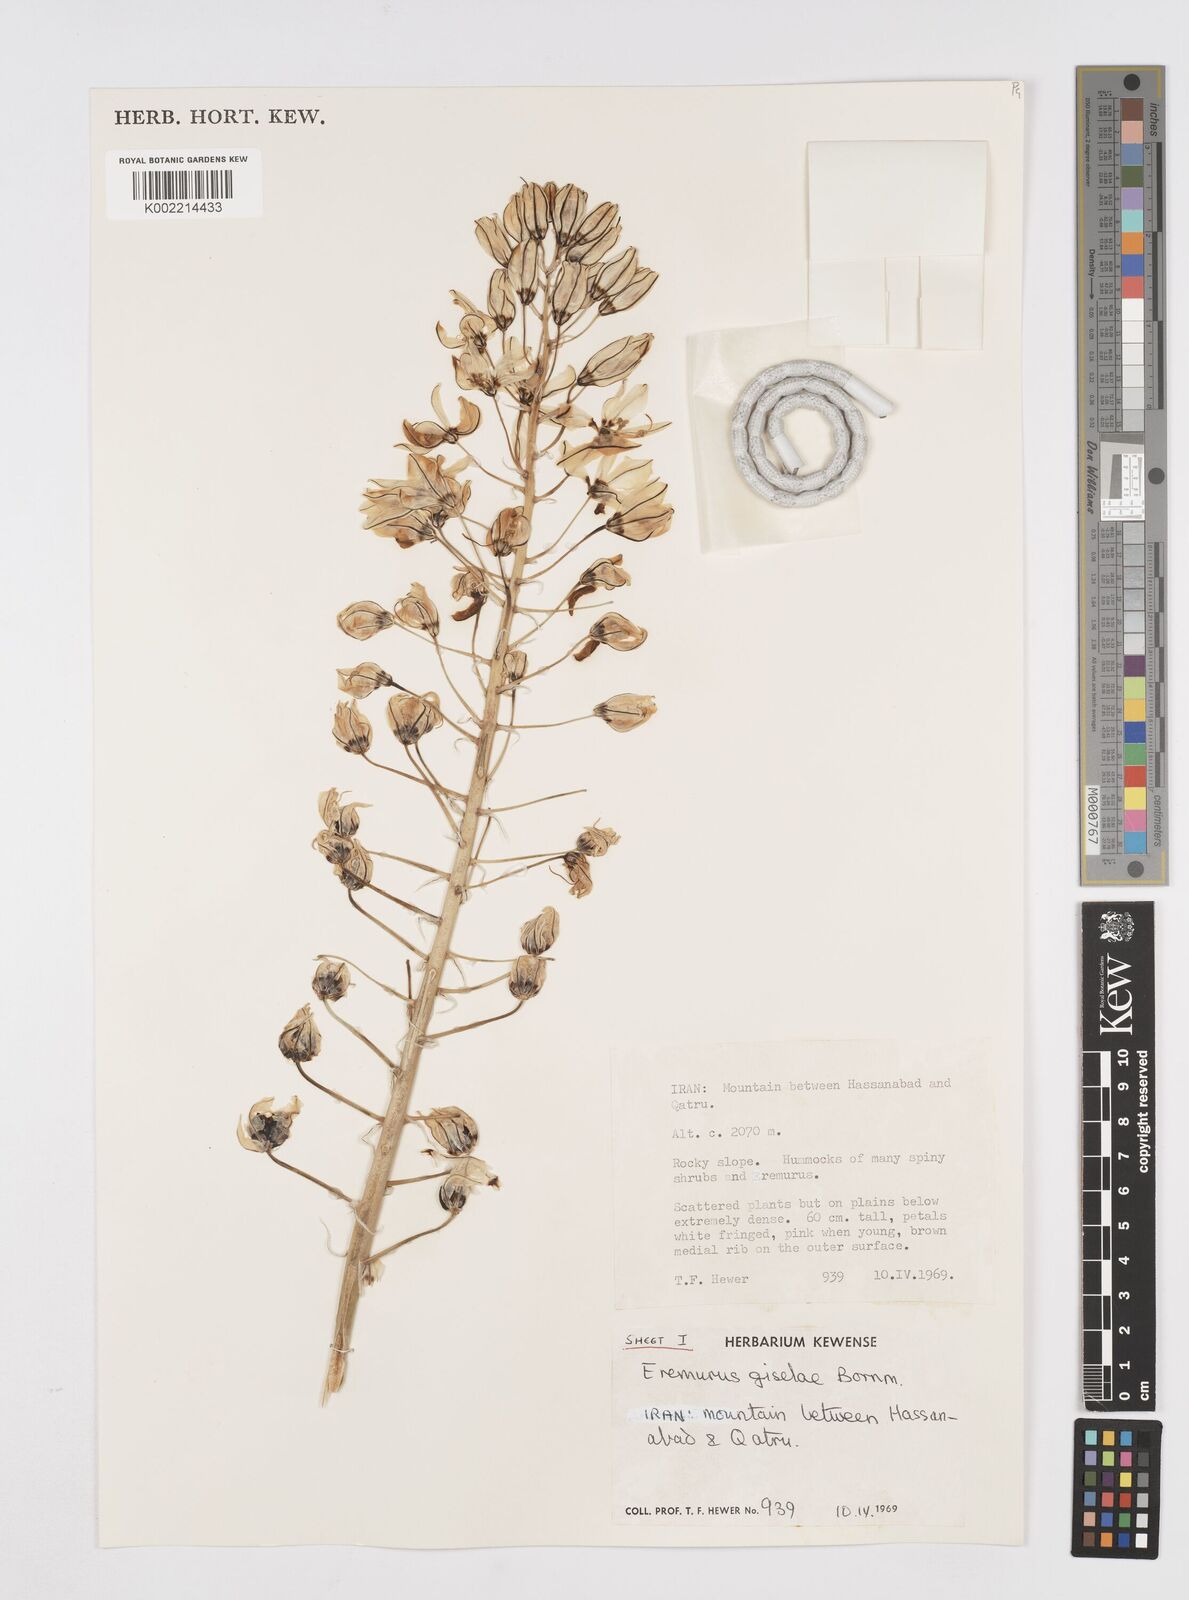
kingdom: Plantae
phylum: Tracheophyta
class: Liliopsida
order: Asparagales
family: Asphodelaceae
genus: Eremurus
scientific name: Eremurus kopet-daghensis
